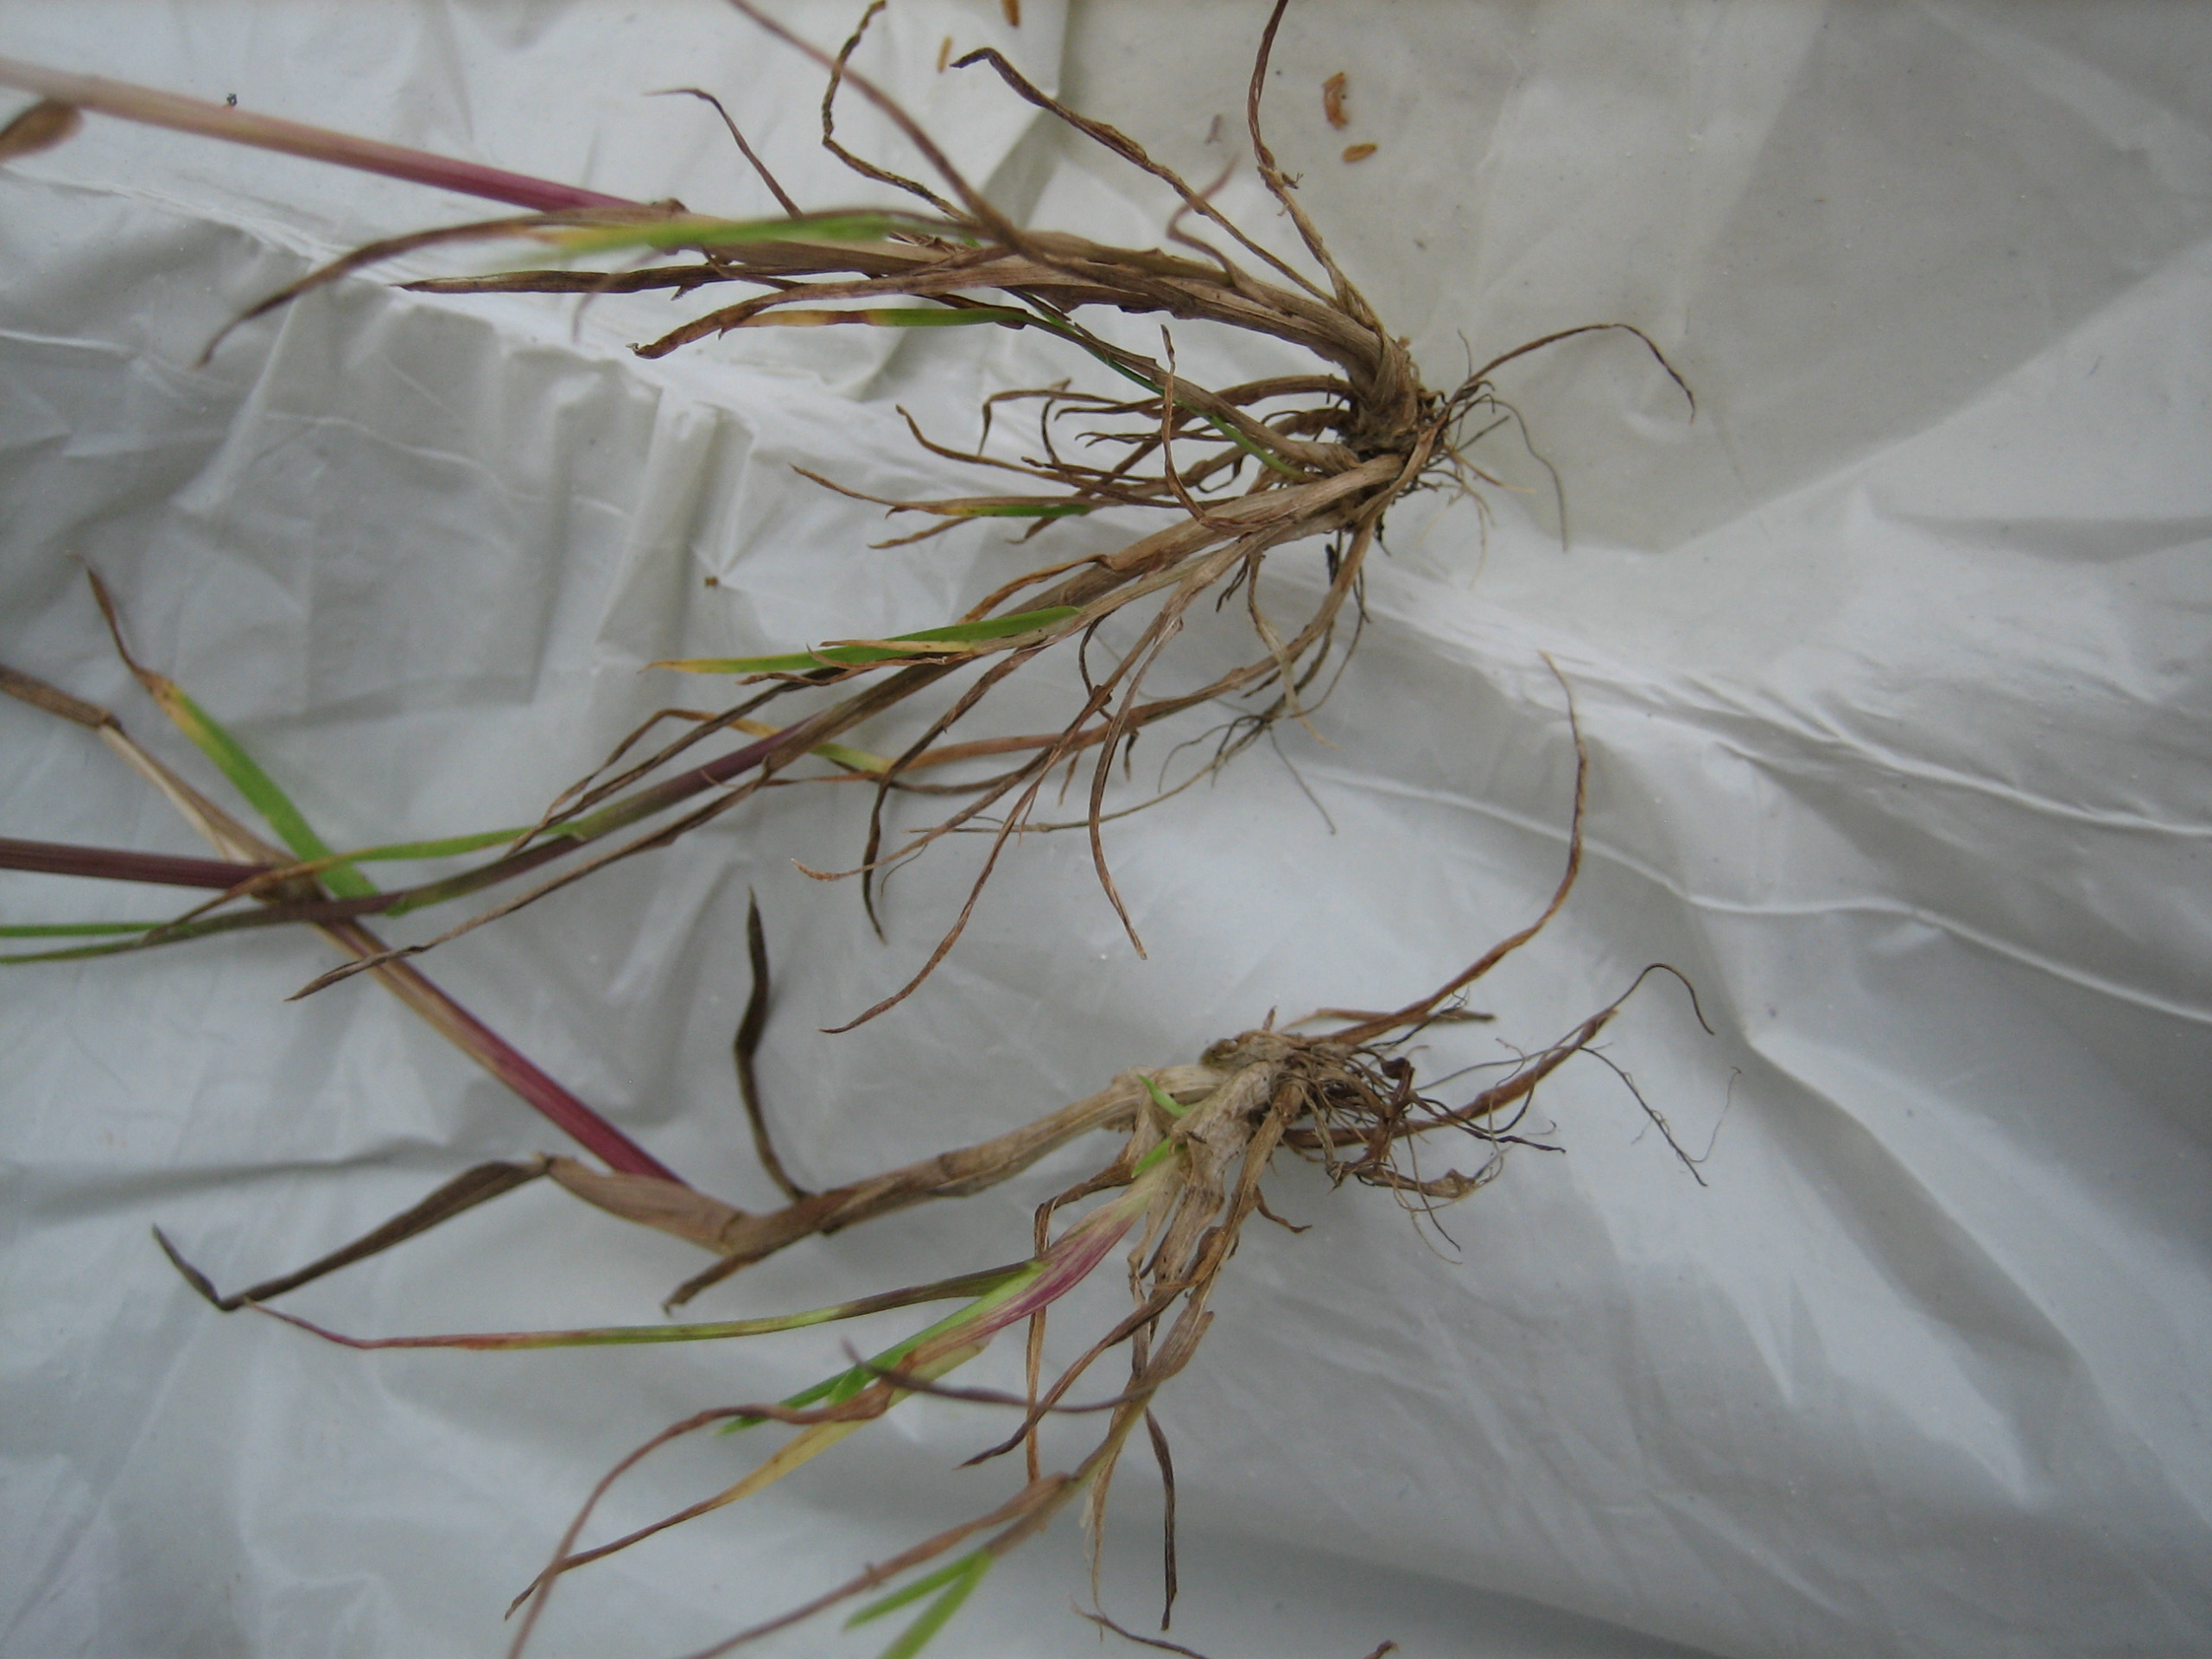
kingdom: Plantae
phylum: Tracheophyta
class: Liliopsida
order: Poales
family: Poaceae
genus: Poa
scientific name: Poa trivialis
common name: Almindelig rapgræs
